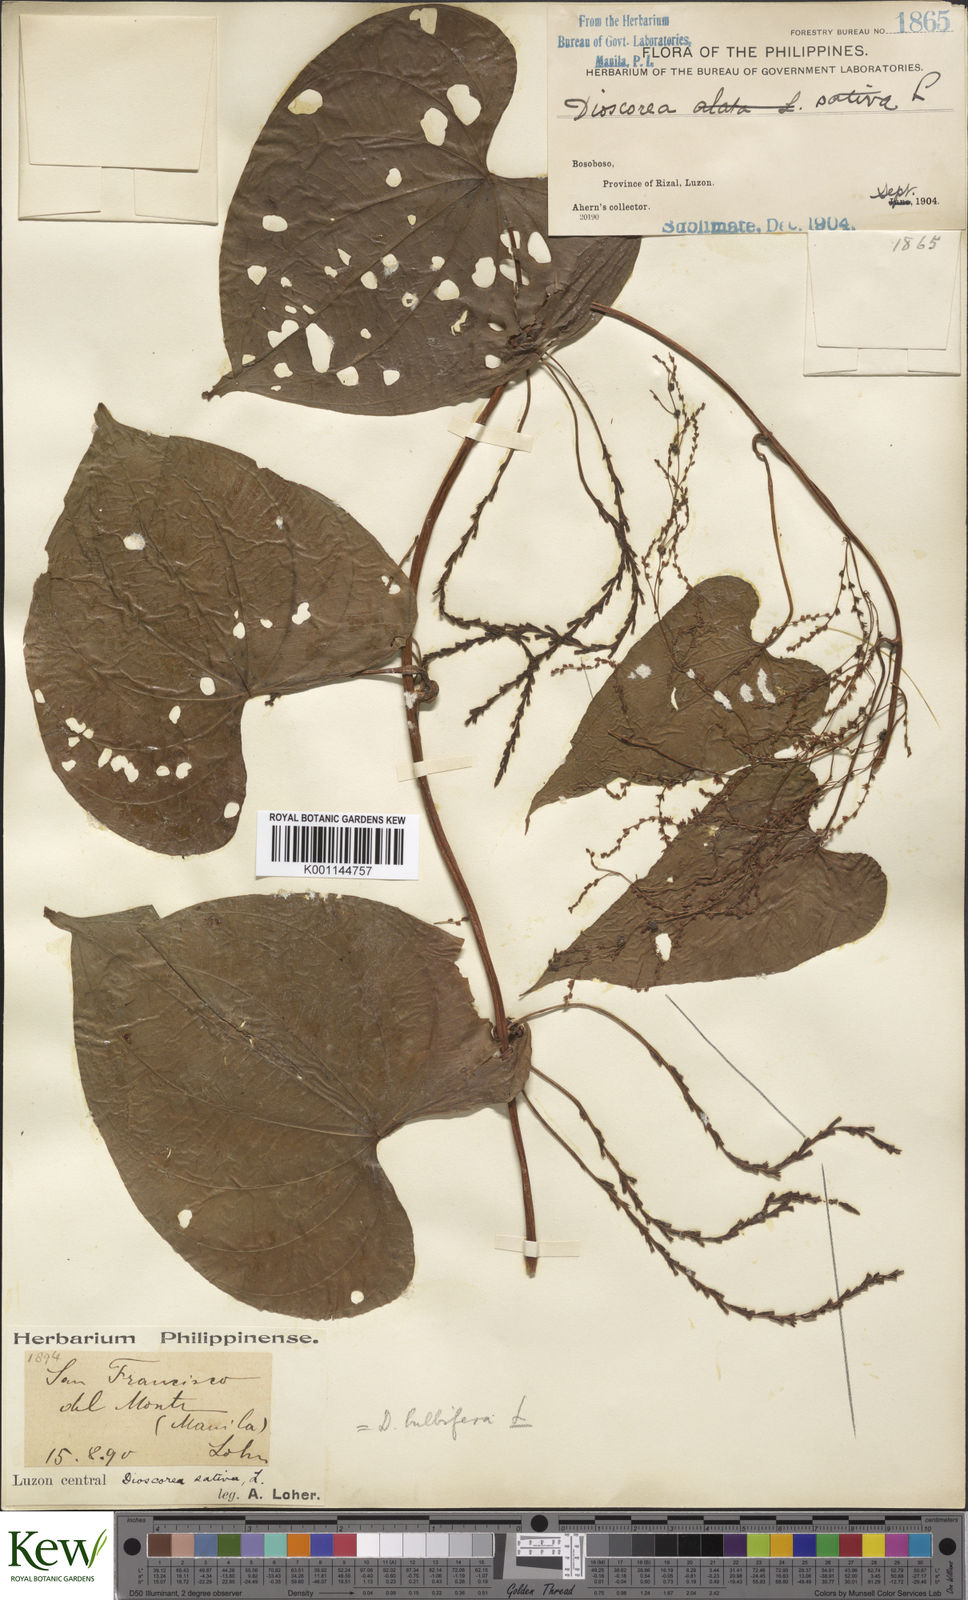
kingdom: Plantae
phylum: Tracheophyta
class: Liliopsida
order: Dioscoreales
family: Dioscoreaceae
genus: Dioscorea
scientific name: Dioscorea bulbifera
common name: Air yam
